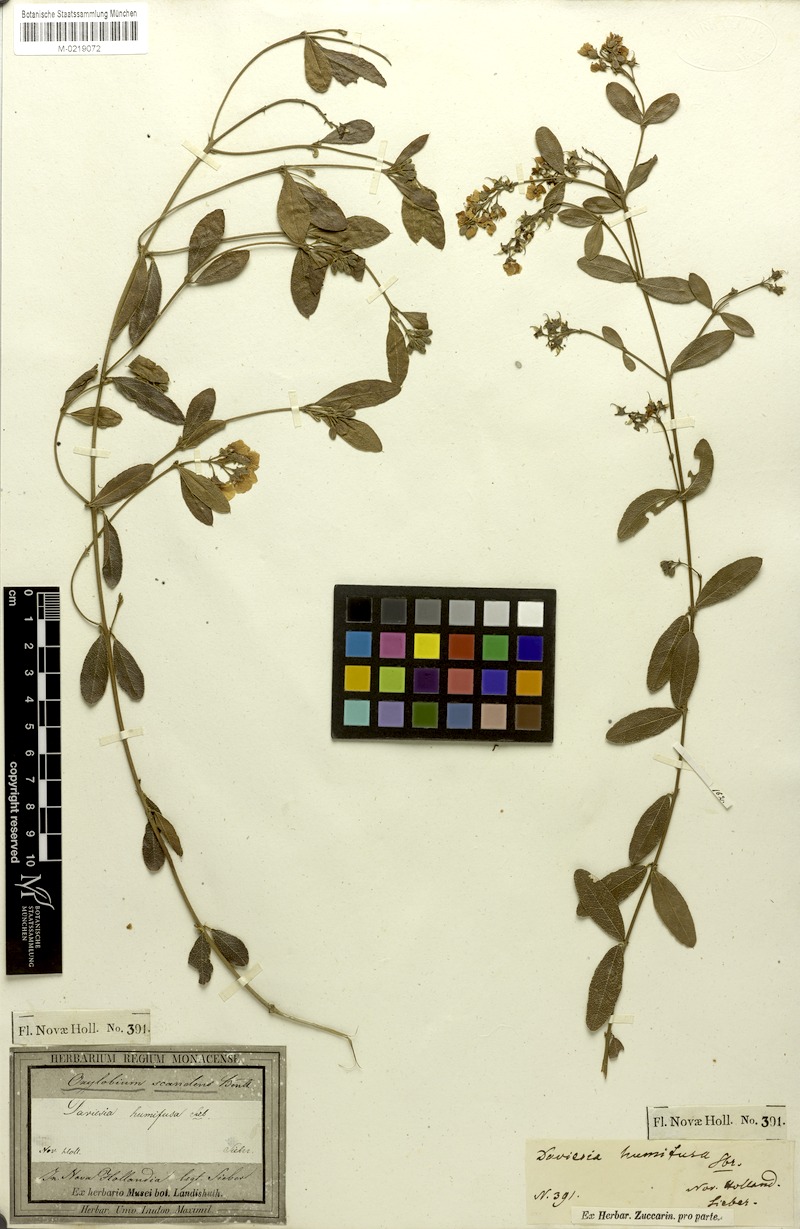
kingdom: Plantae
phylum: Tracheophyta
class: Magnoliopsida
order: Fabales
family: Fabaceae
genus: Podolobium
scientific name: Podolobium scandens
